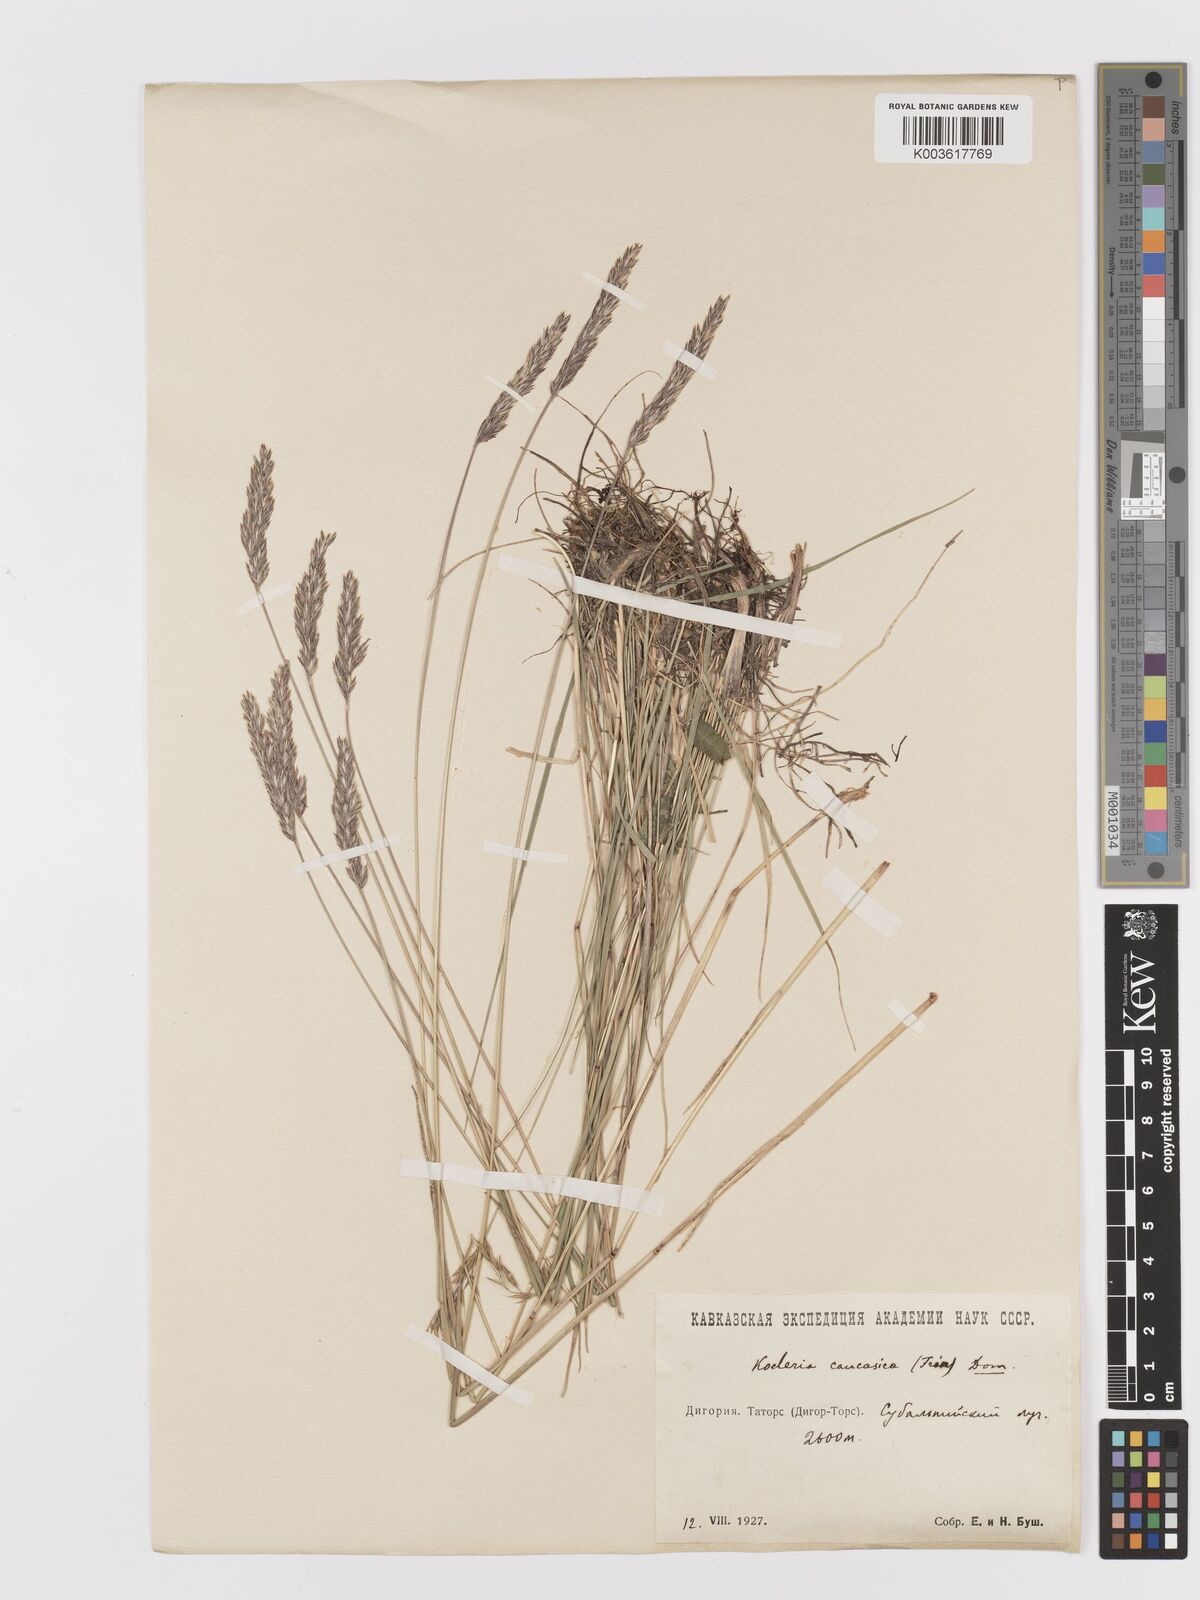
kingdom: Plantae
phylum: Tracheophyta
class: Liliopsida
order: Poales
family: Poaceae
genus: Koeleria
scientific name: Koeleria eriostachya
